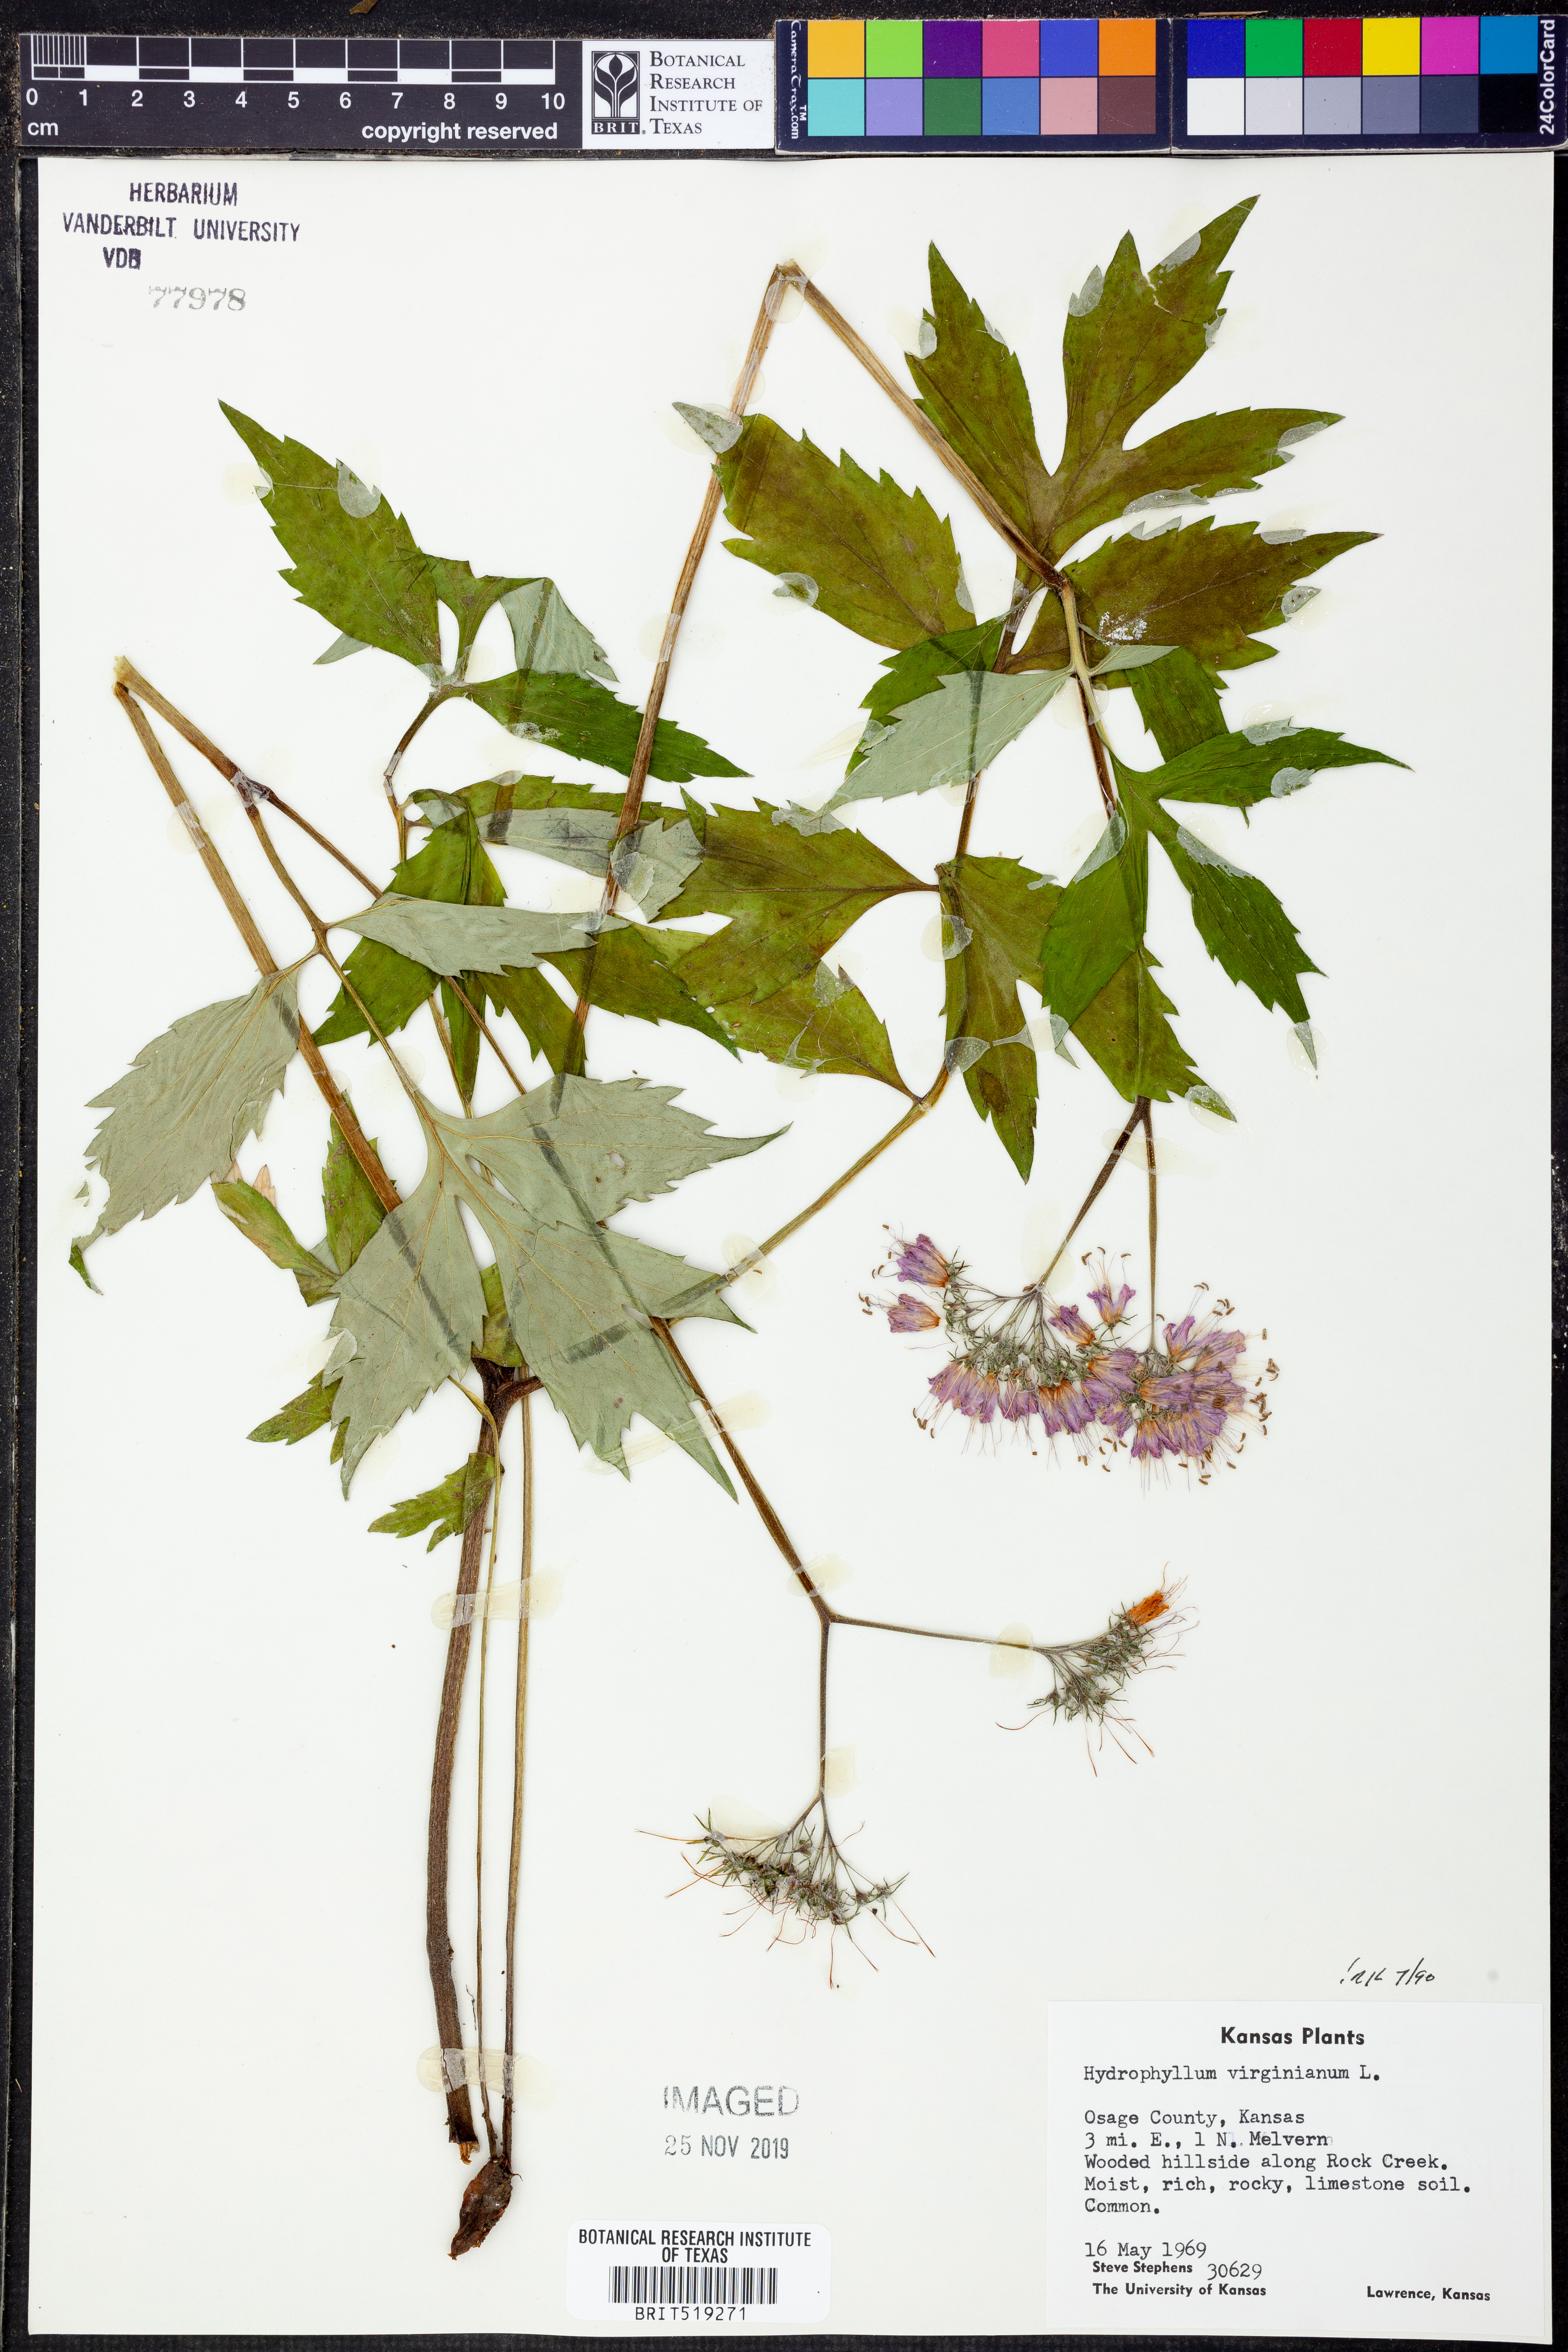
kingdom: Plantae
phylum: Tracheophyta
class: Magnoliopsida
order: Boraginales
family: Hydrophyllaceae
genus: Hydrophyllum
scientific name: Hydrophyllum virginianum
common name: Virginia waterleaf
